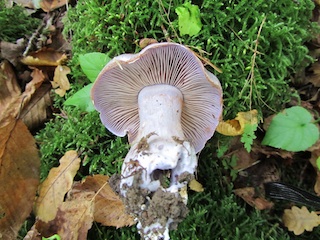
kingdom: Fungi
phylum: Basidiomycota
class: Agaricomycetes
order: Agaricales
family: Cortinariaceae
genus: Cortinarius
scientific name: Cortinarius largus
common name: violetrandet slørhat
